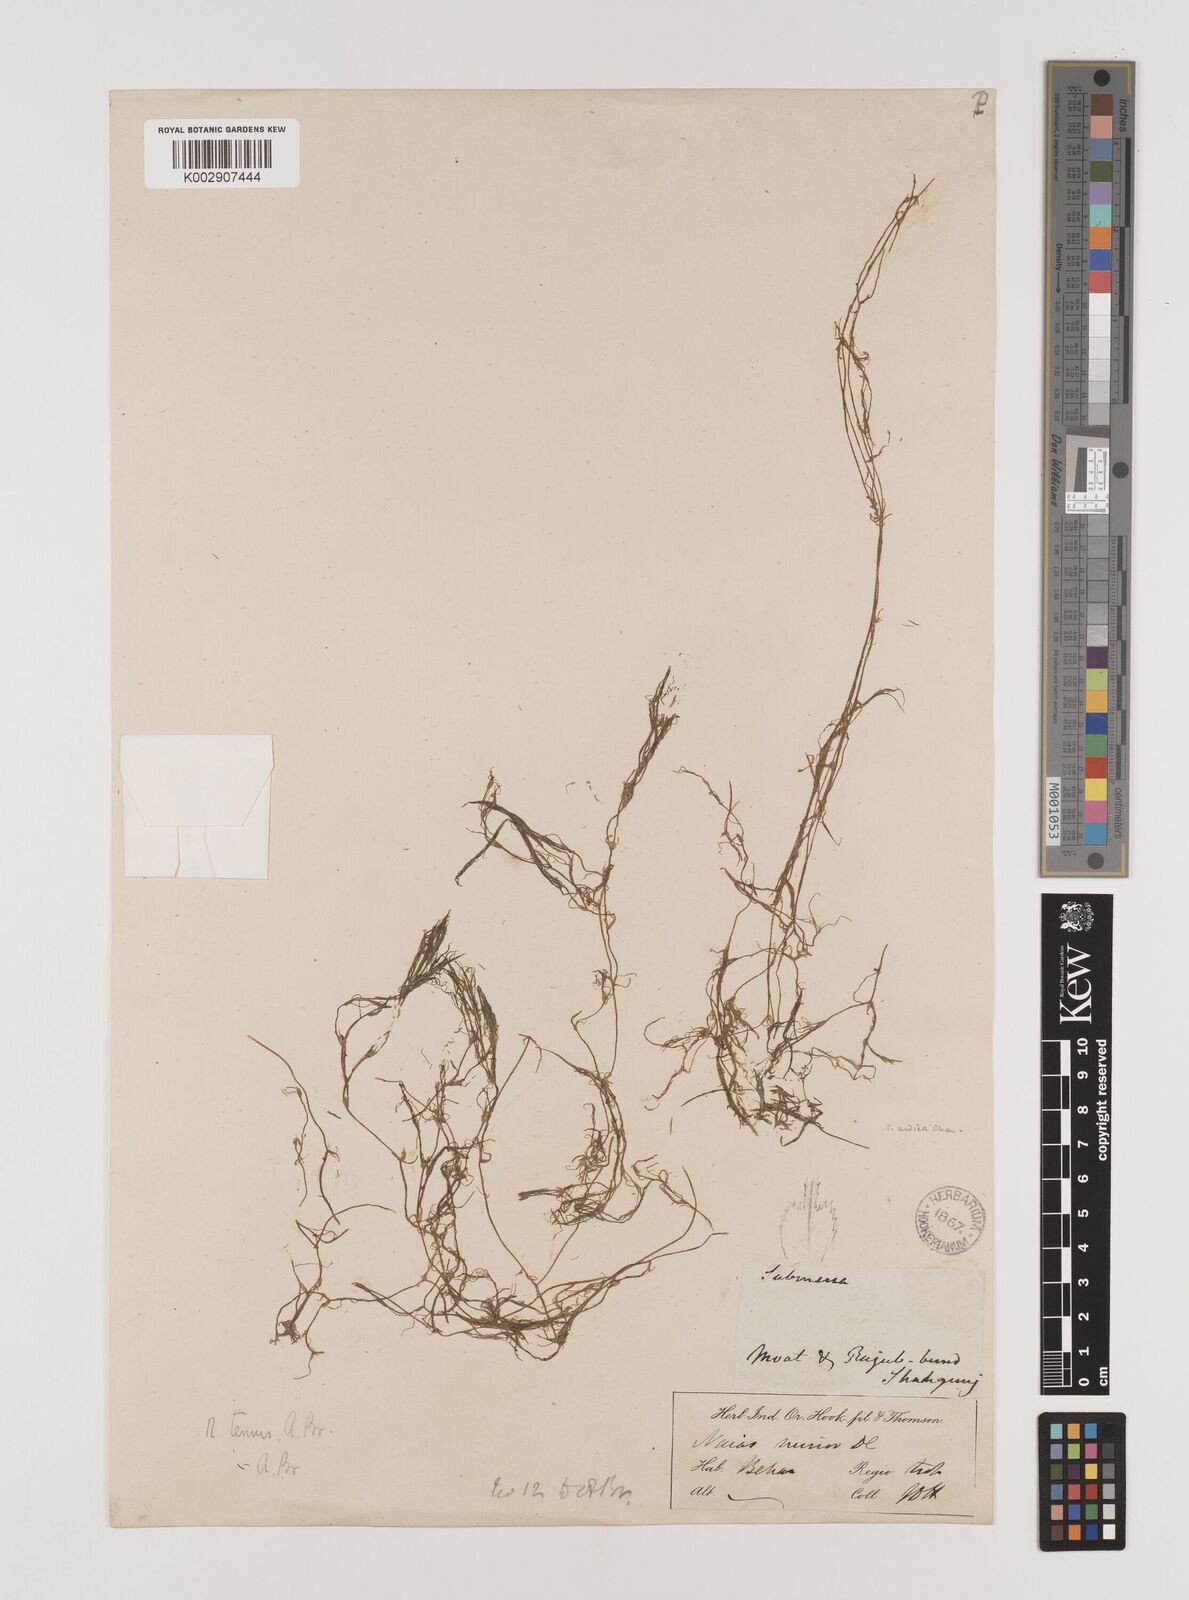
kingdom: Plantae
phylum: Tracheophyta
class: Liliopsida
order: Alismatales
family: Hydrocharitaceae
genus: Najas
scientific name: Najas indica
